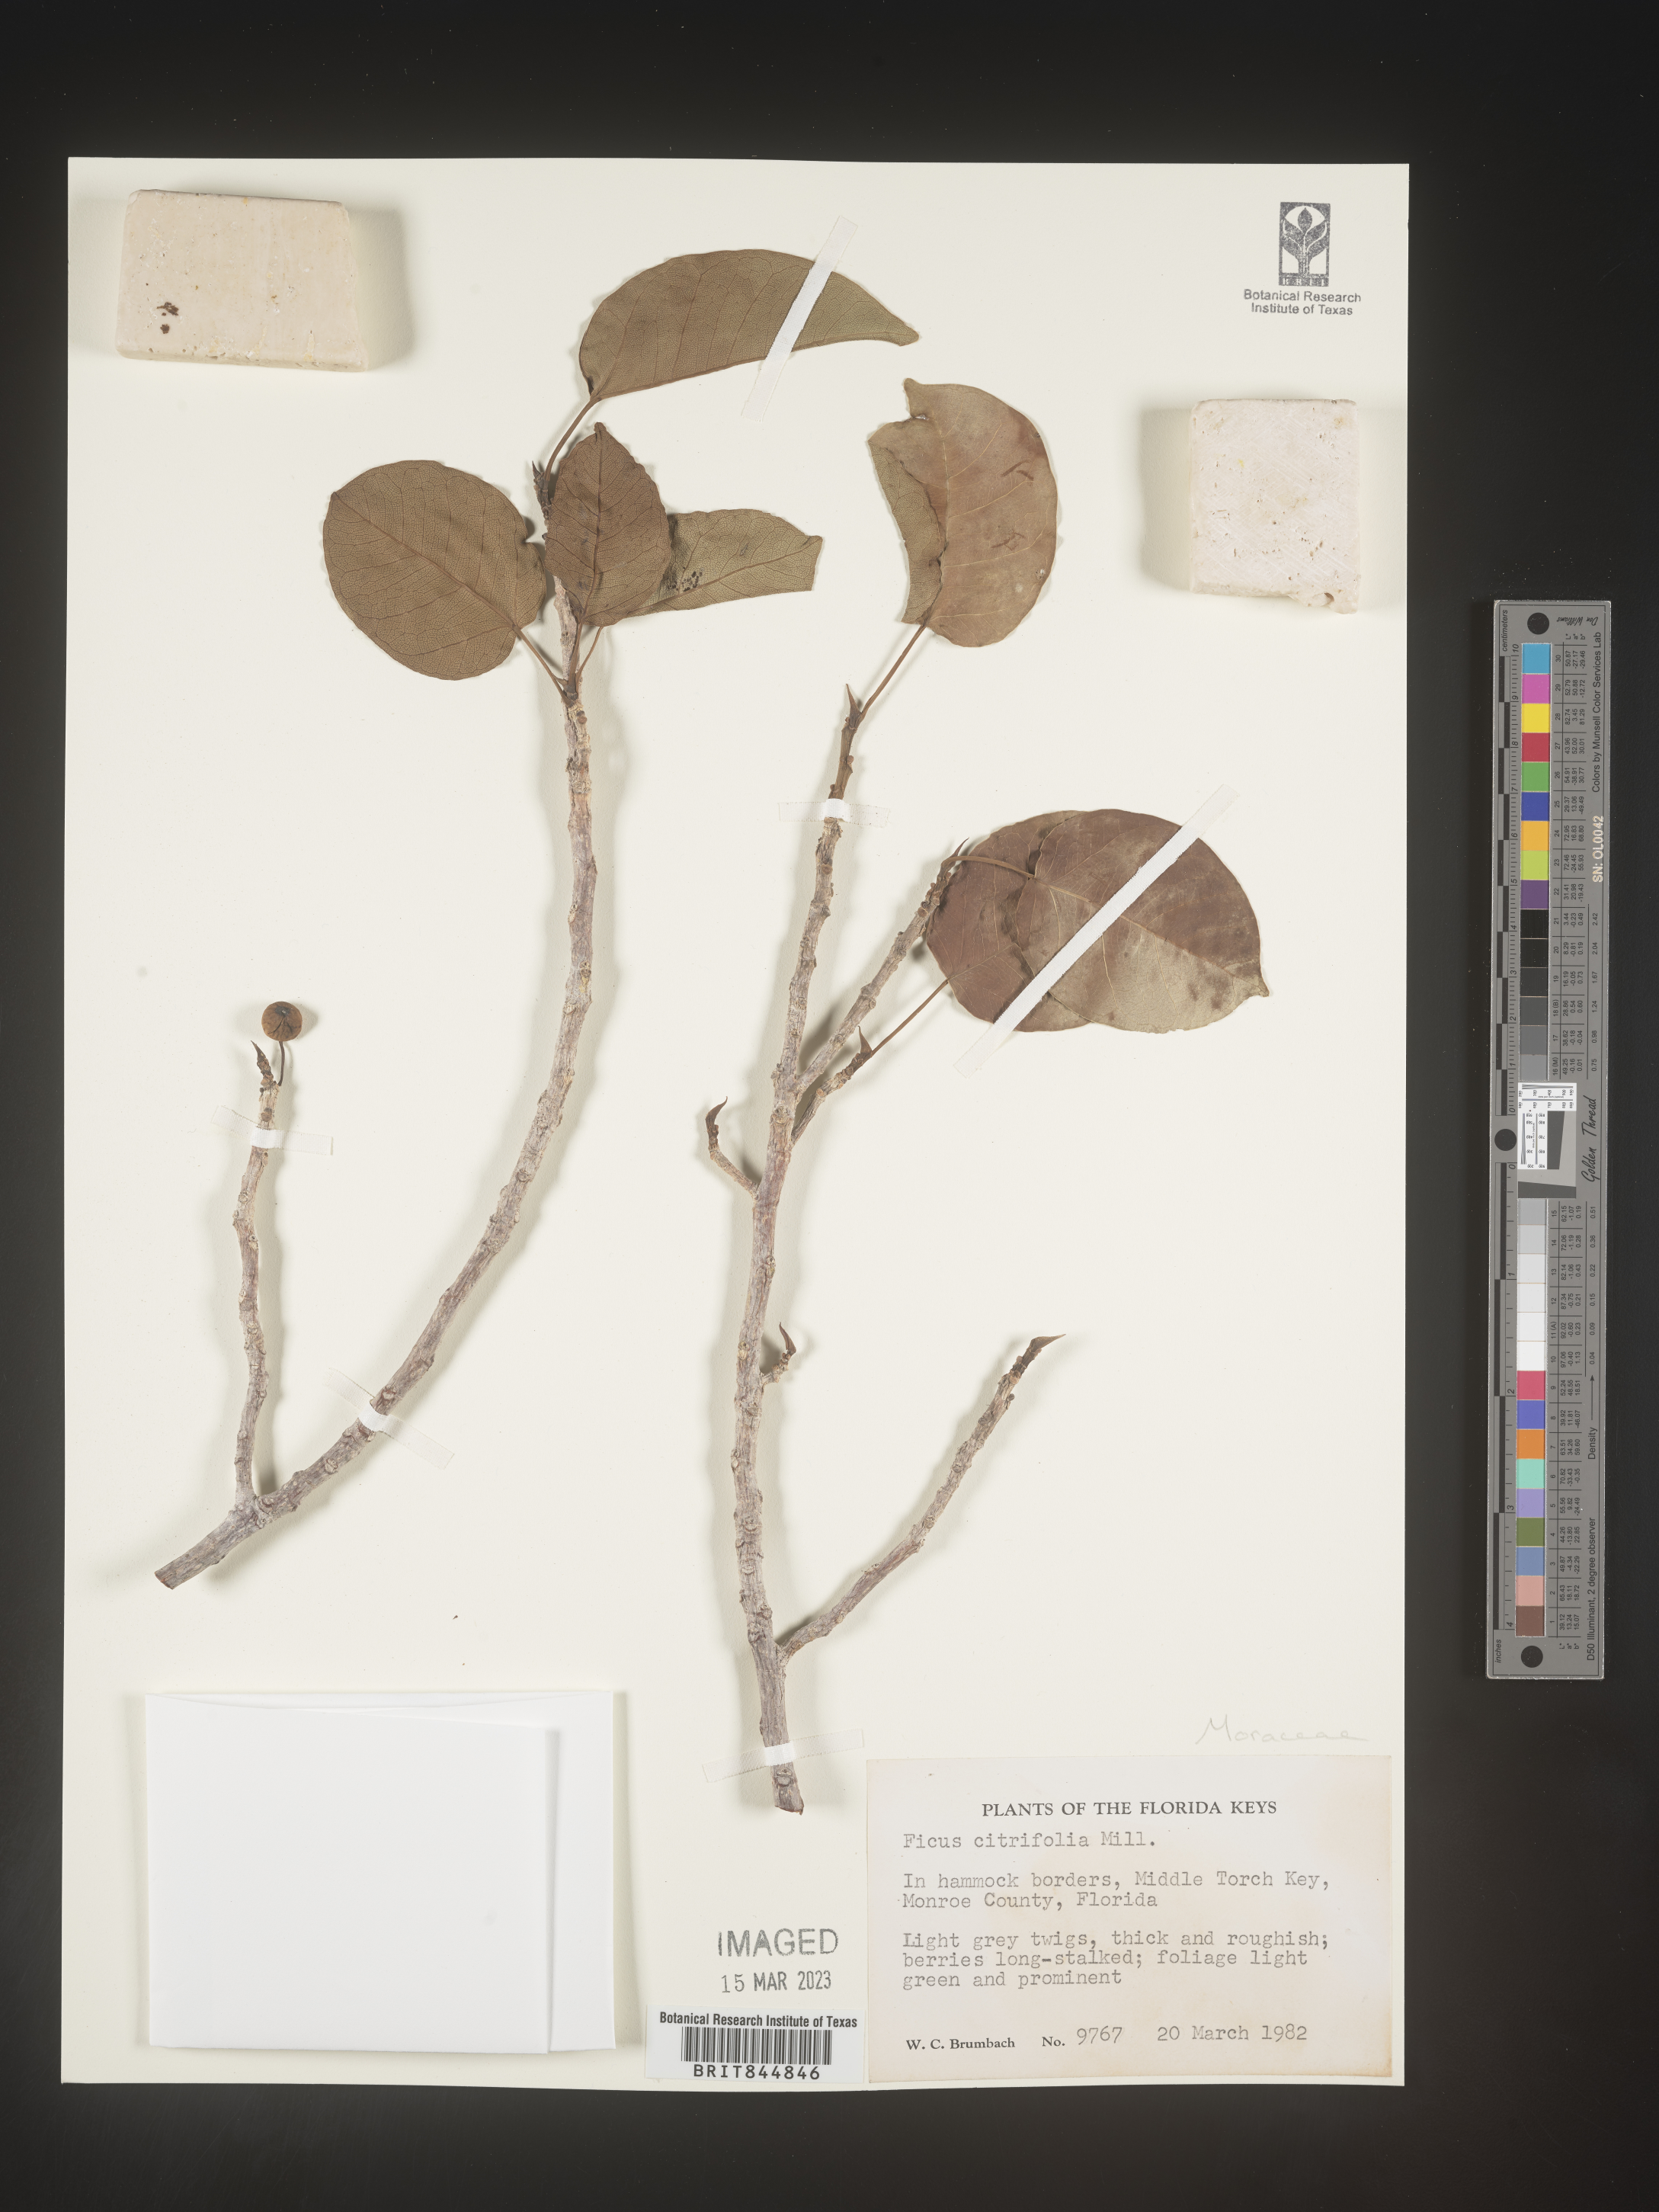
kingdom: Plantae
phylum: Tracheophyta
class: Magnoliopsida
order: Rosales
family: Moraceae
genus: Ficus
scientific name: Ficus
